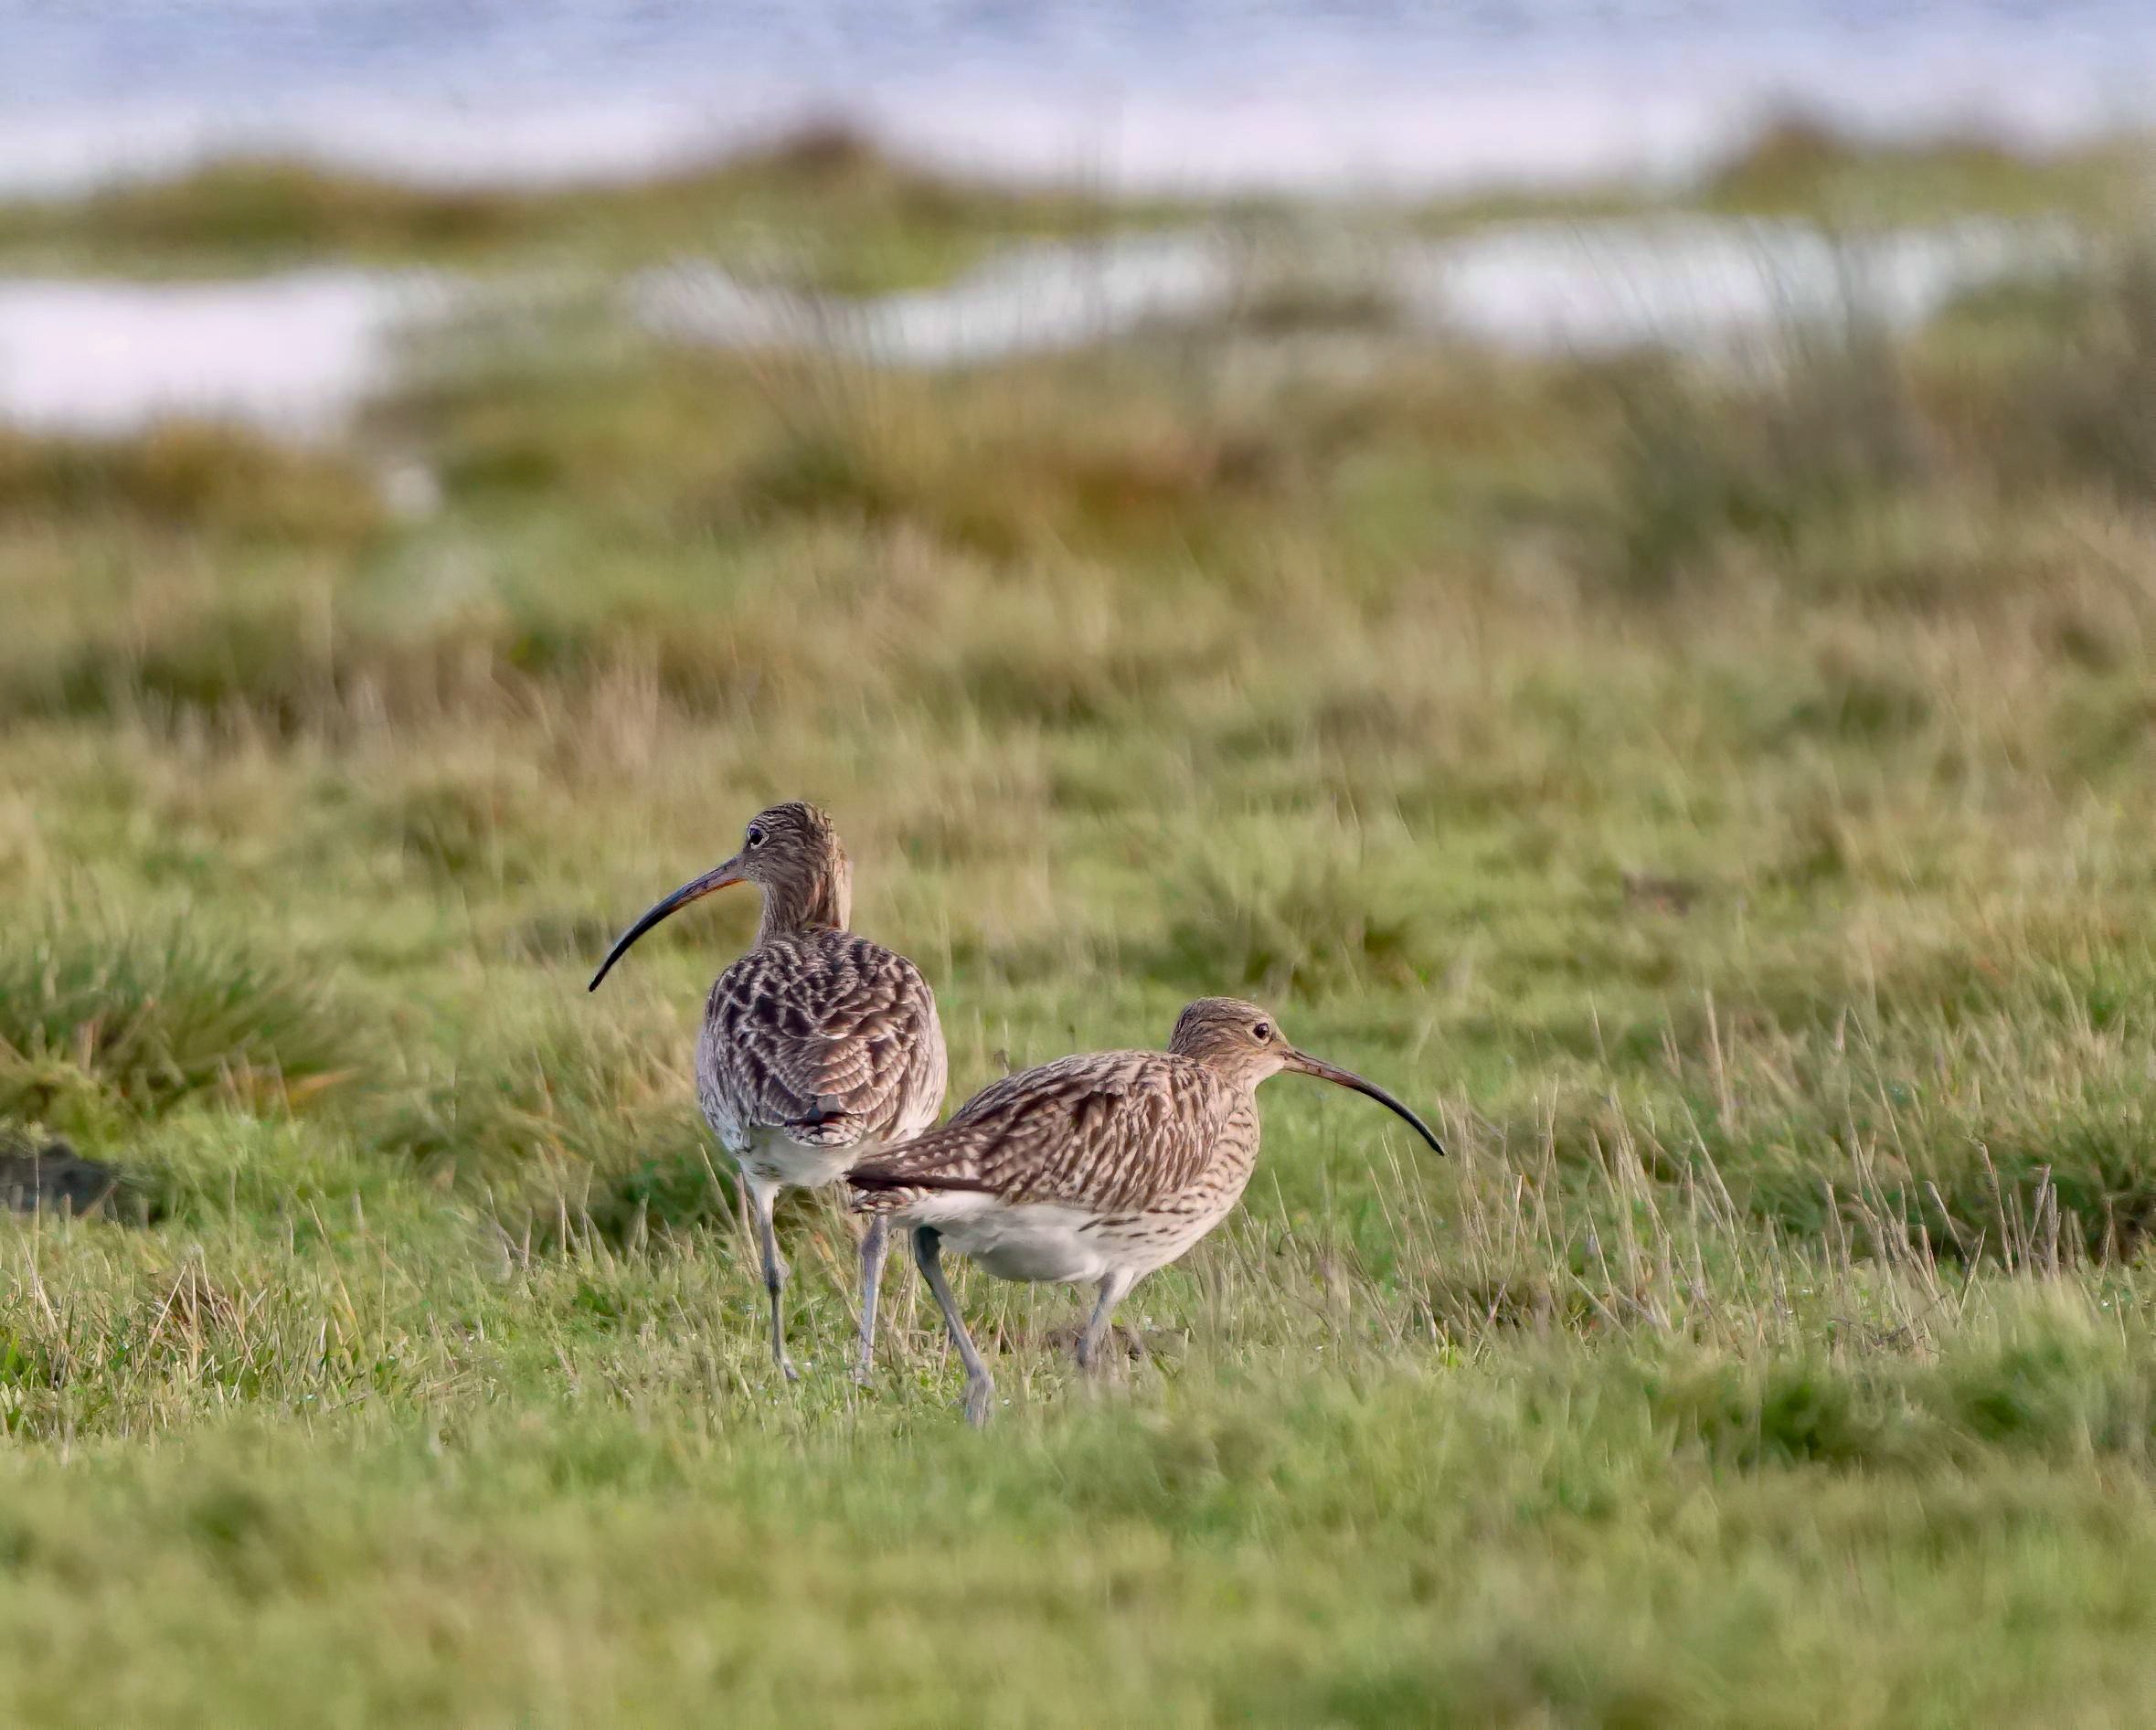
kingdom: Animalia
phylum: Chordata
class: Aves
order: Charadriiformes
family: Scolopacidae
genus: Numenius
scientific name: Numenius arquata
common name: Storspove
